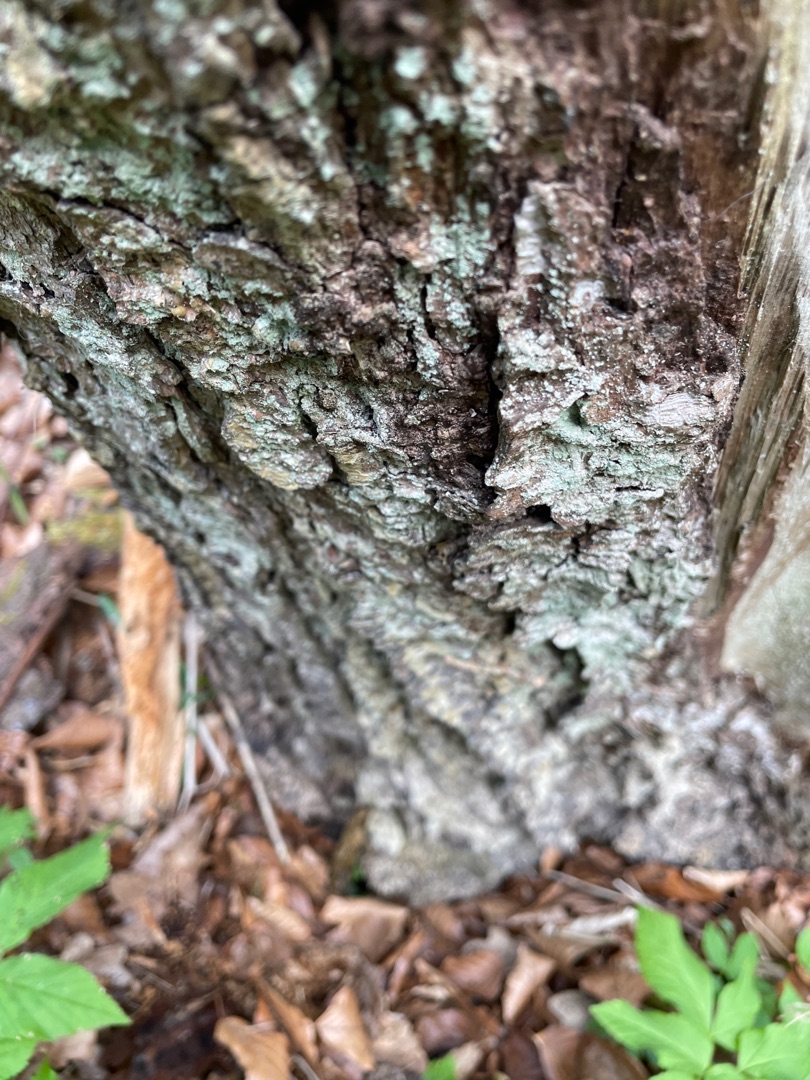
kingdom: Fungi
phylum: Ascomycota
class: Lecanoromycetes
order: Lecanorales
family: Stereocaulaceae
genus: Lepraria
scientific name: Lepraria
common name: Støvlav
